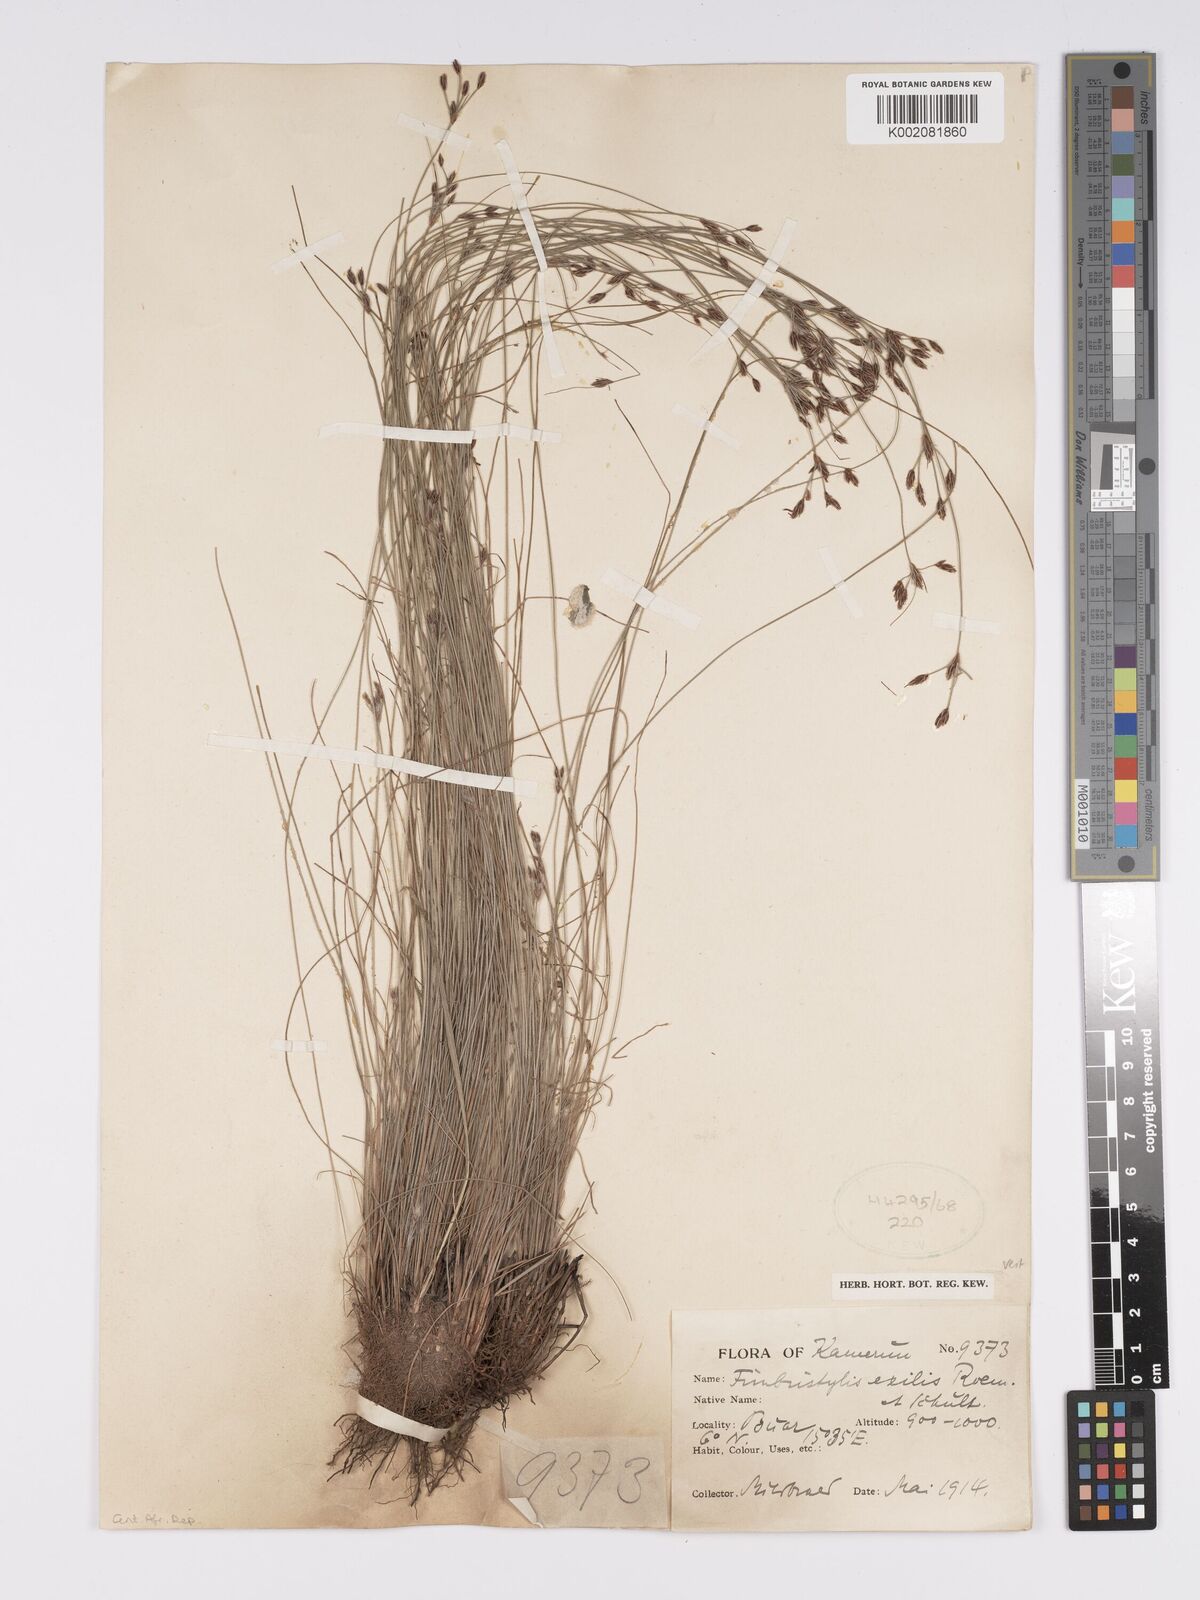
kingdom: Plantae
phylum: Tracheophyta
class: Liliopsida
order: Poales
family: Cyperaceae
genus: Bulbostylis
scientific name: Bulbostylis hispidula
